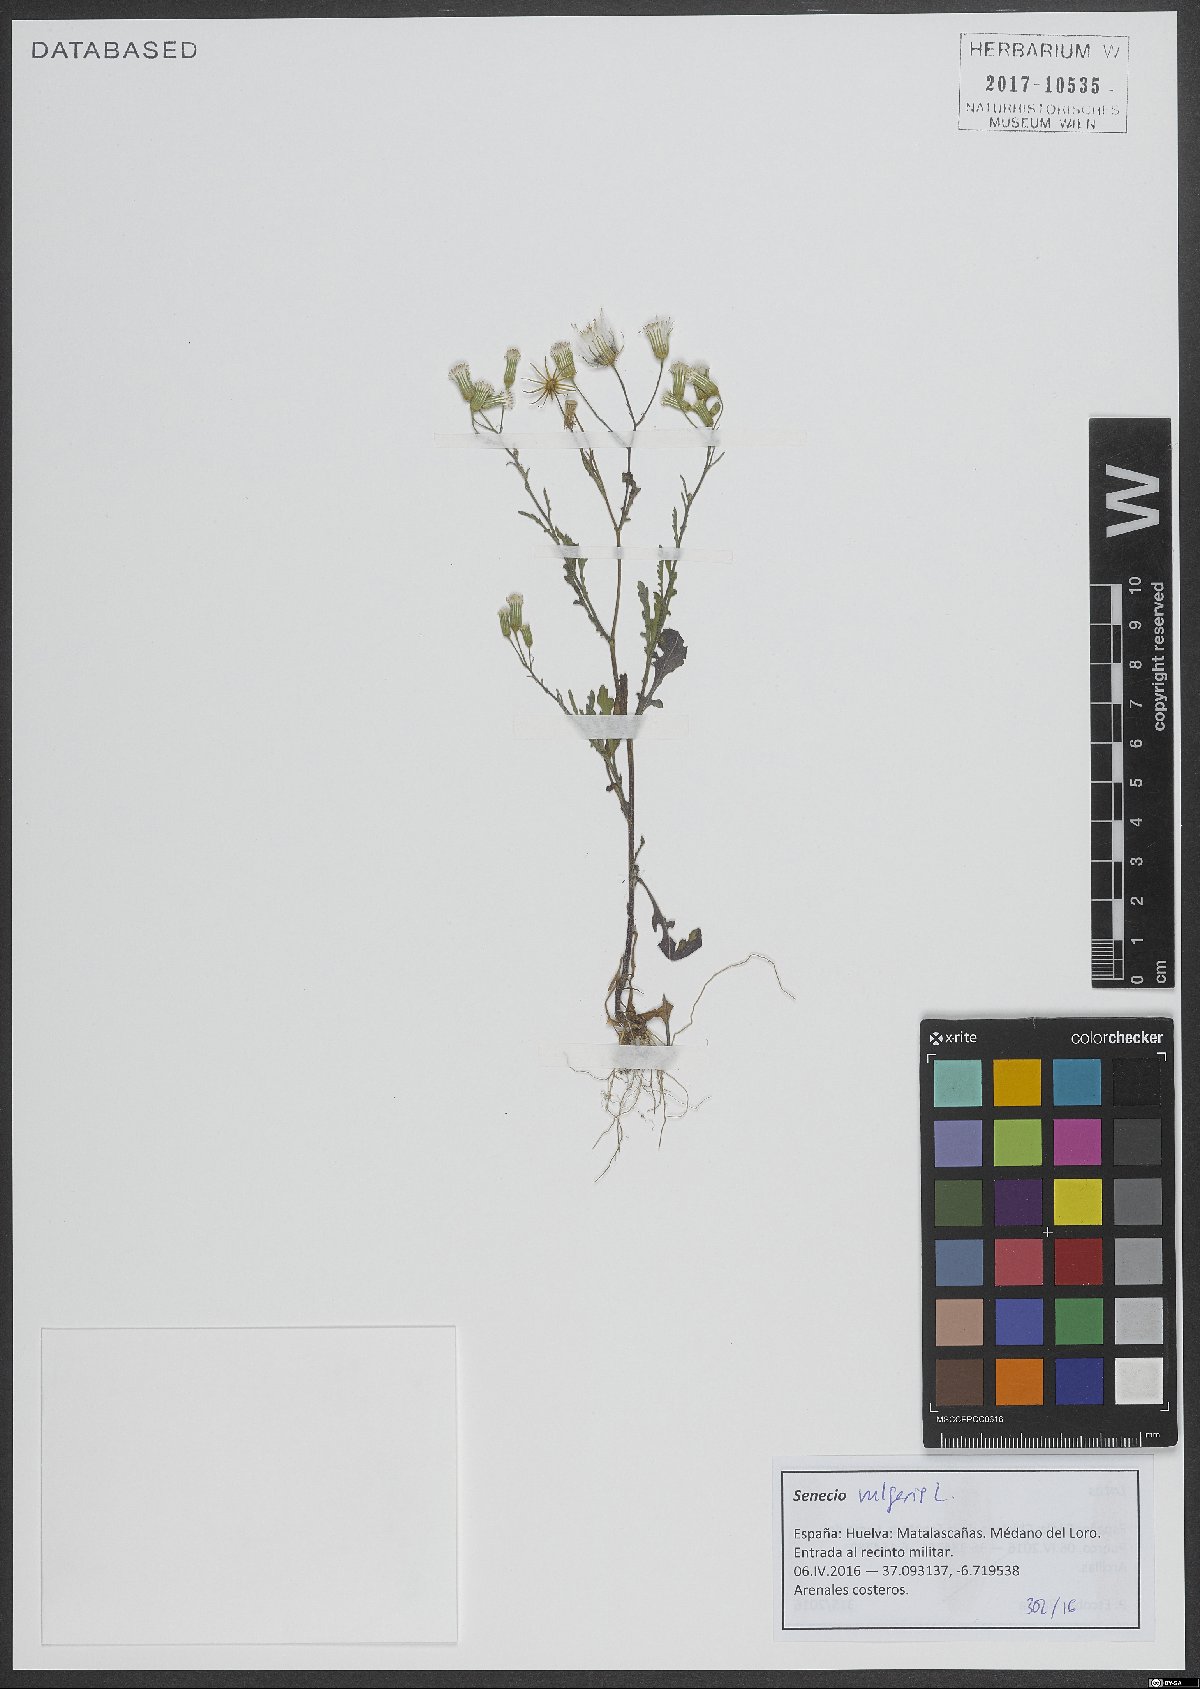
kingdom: Plantae
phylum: Tracheophyta
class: Magnoliopsida
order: Asterales
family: Asteraceae
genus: Senecio
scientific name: Senecio vulgaris
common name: Old-man-in-the-spring
